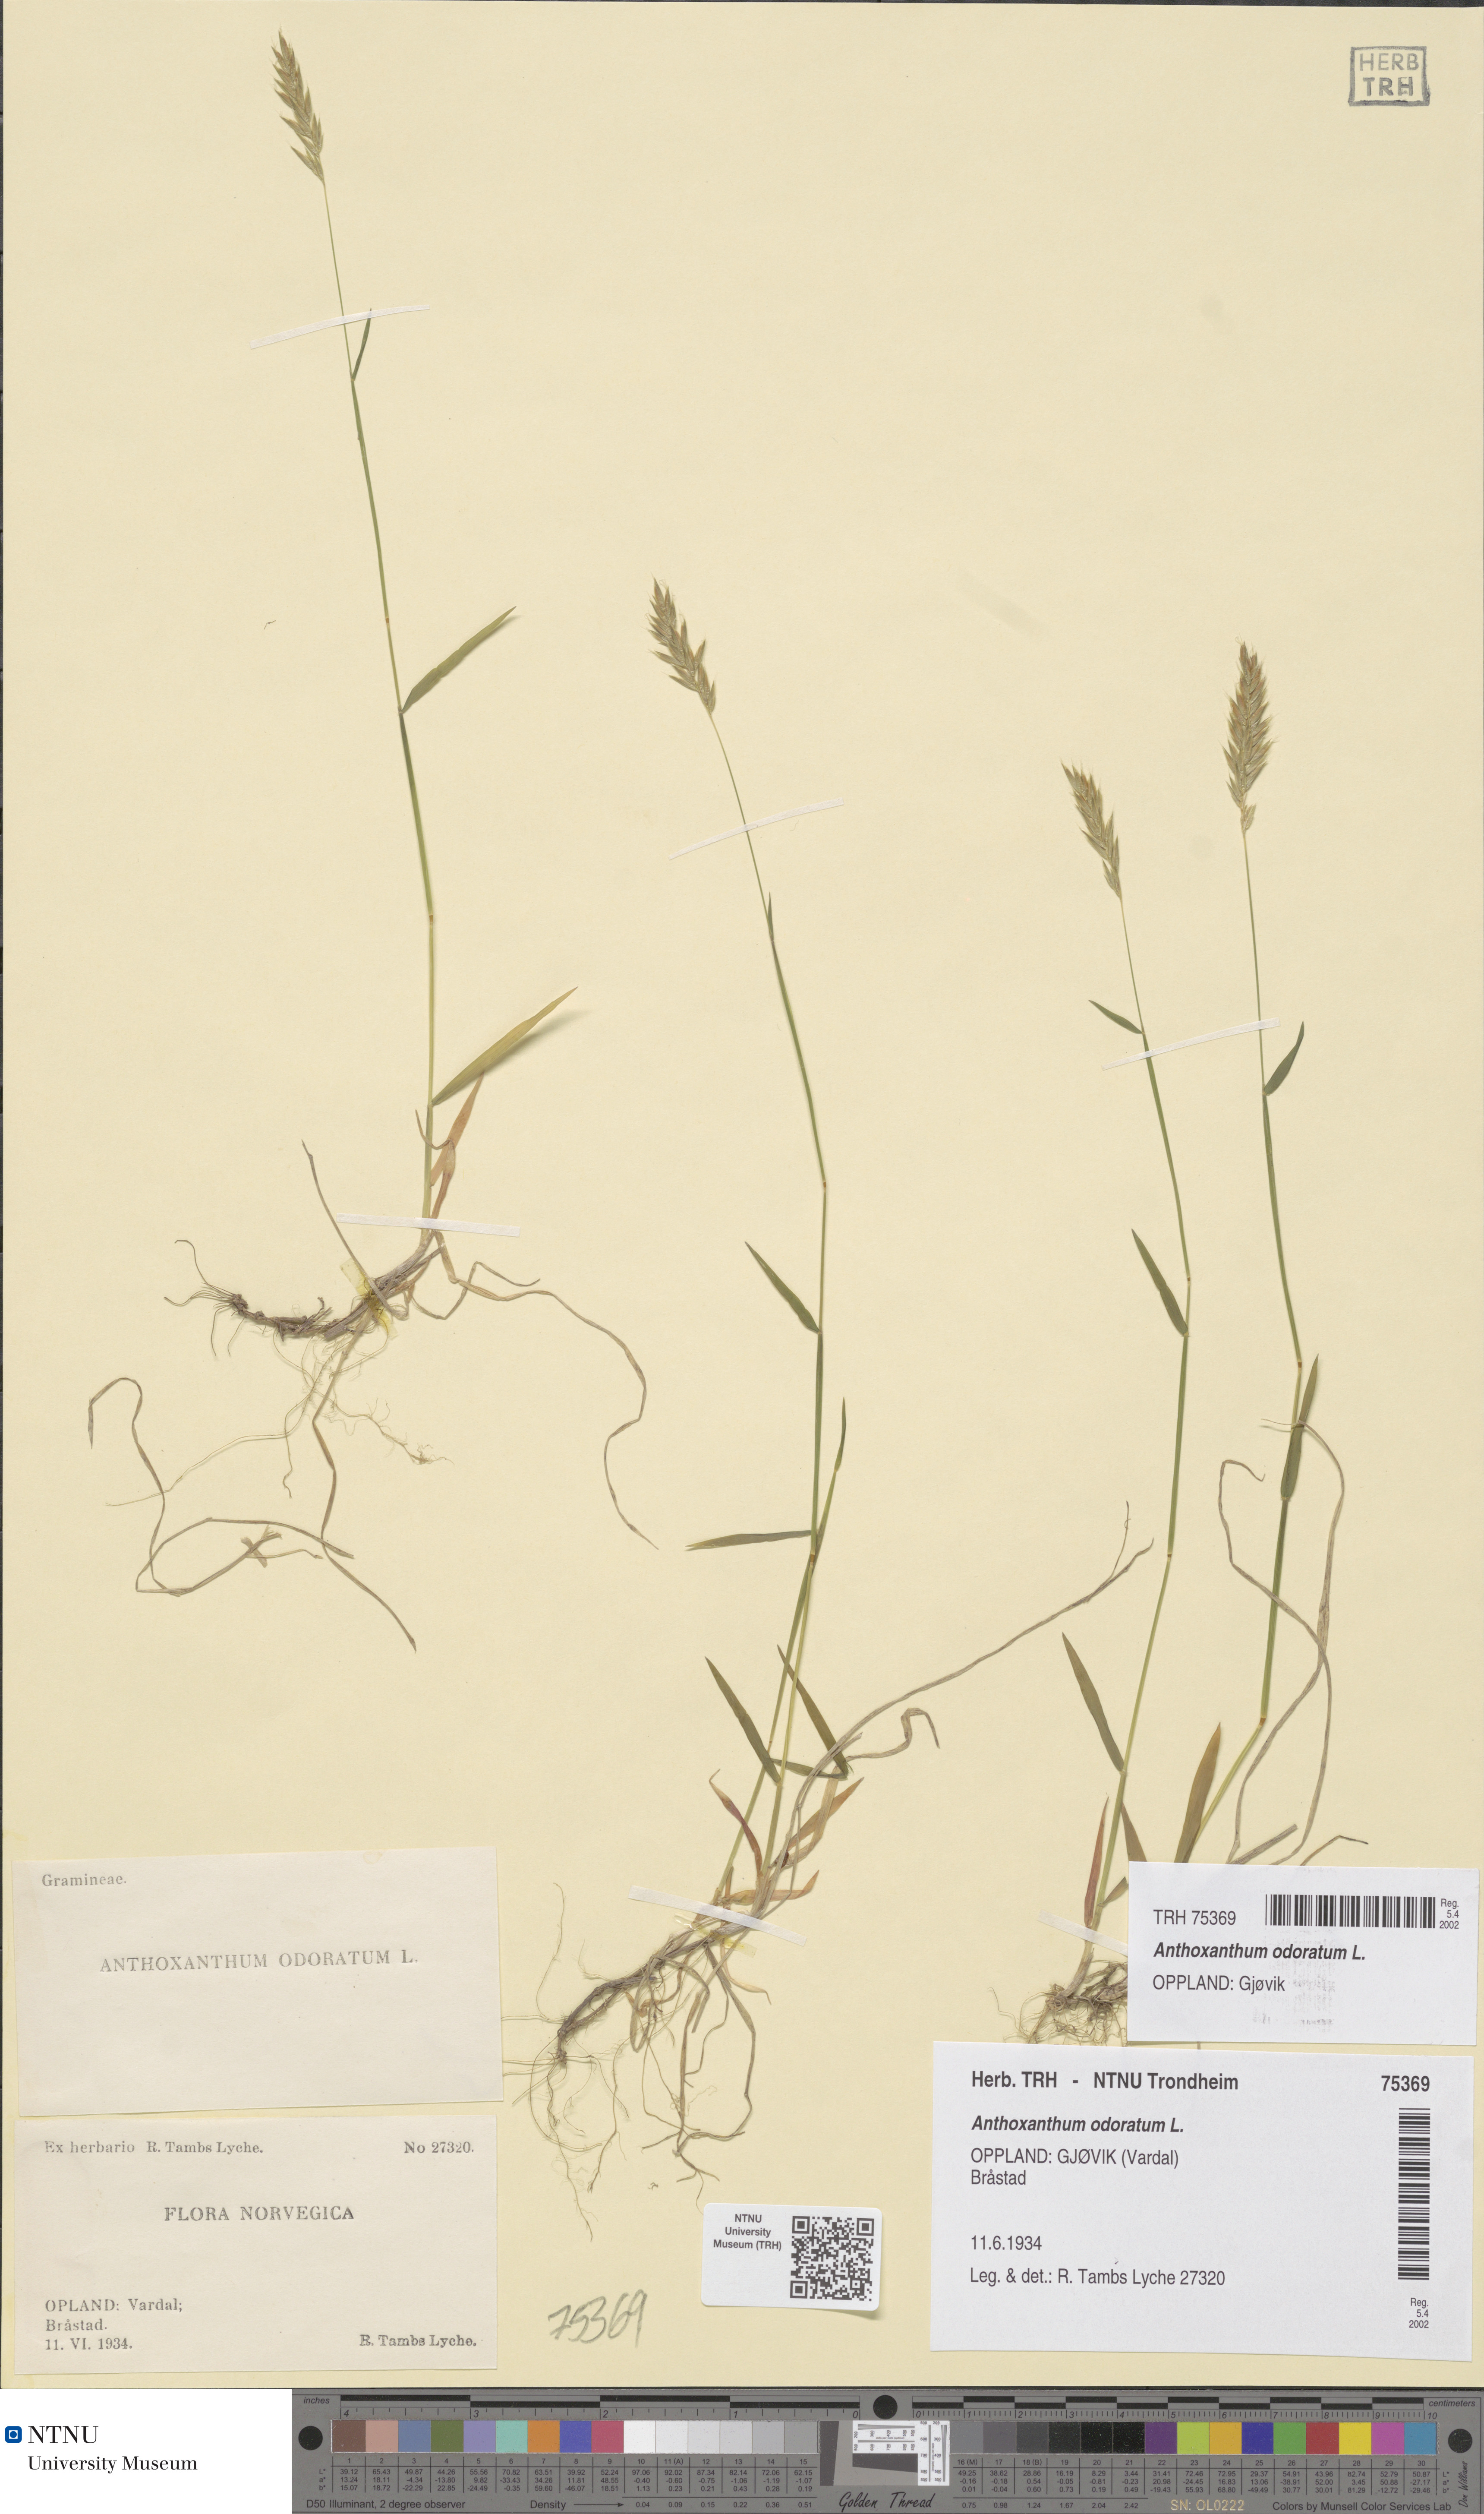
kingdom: Plantae
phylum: Tracheophyta
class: Liliopsida
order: Poales
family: Poaceae
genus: Anthoxanthum
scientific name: Anthoxanthum odoratum
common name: Sweet vernalgrass
